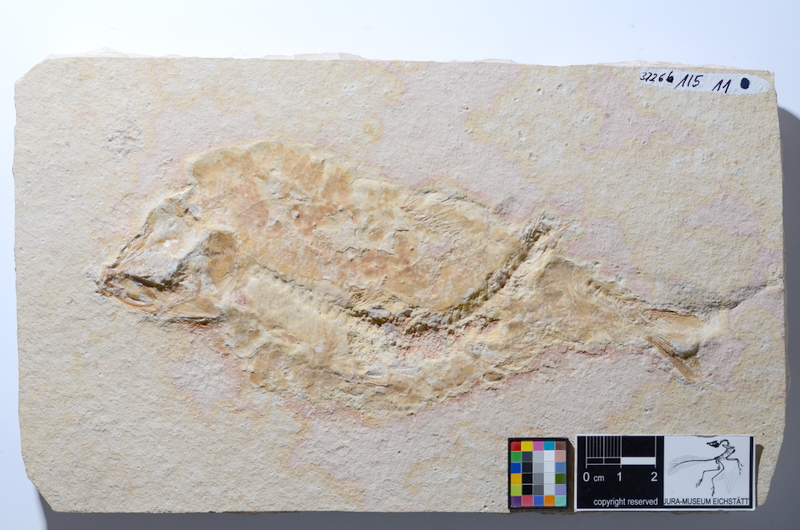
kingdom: Animalia
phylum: Chordata
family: Ascalaboidae
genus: Tharsis
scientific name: Tharsis dubius
